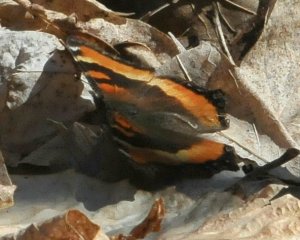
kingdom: Animalia
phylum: Arthropoda
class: Insecta
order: Lepidoptera
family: Nymphalidae
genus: Aglais
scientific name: Aglais milberti
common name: Milbert's Tortoiseshell
